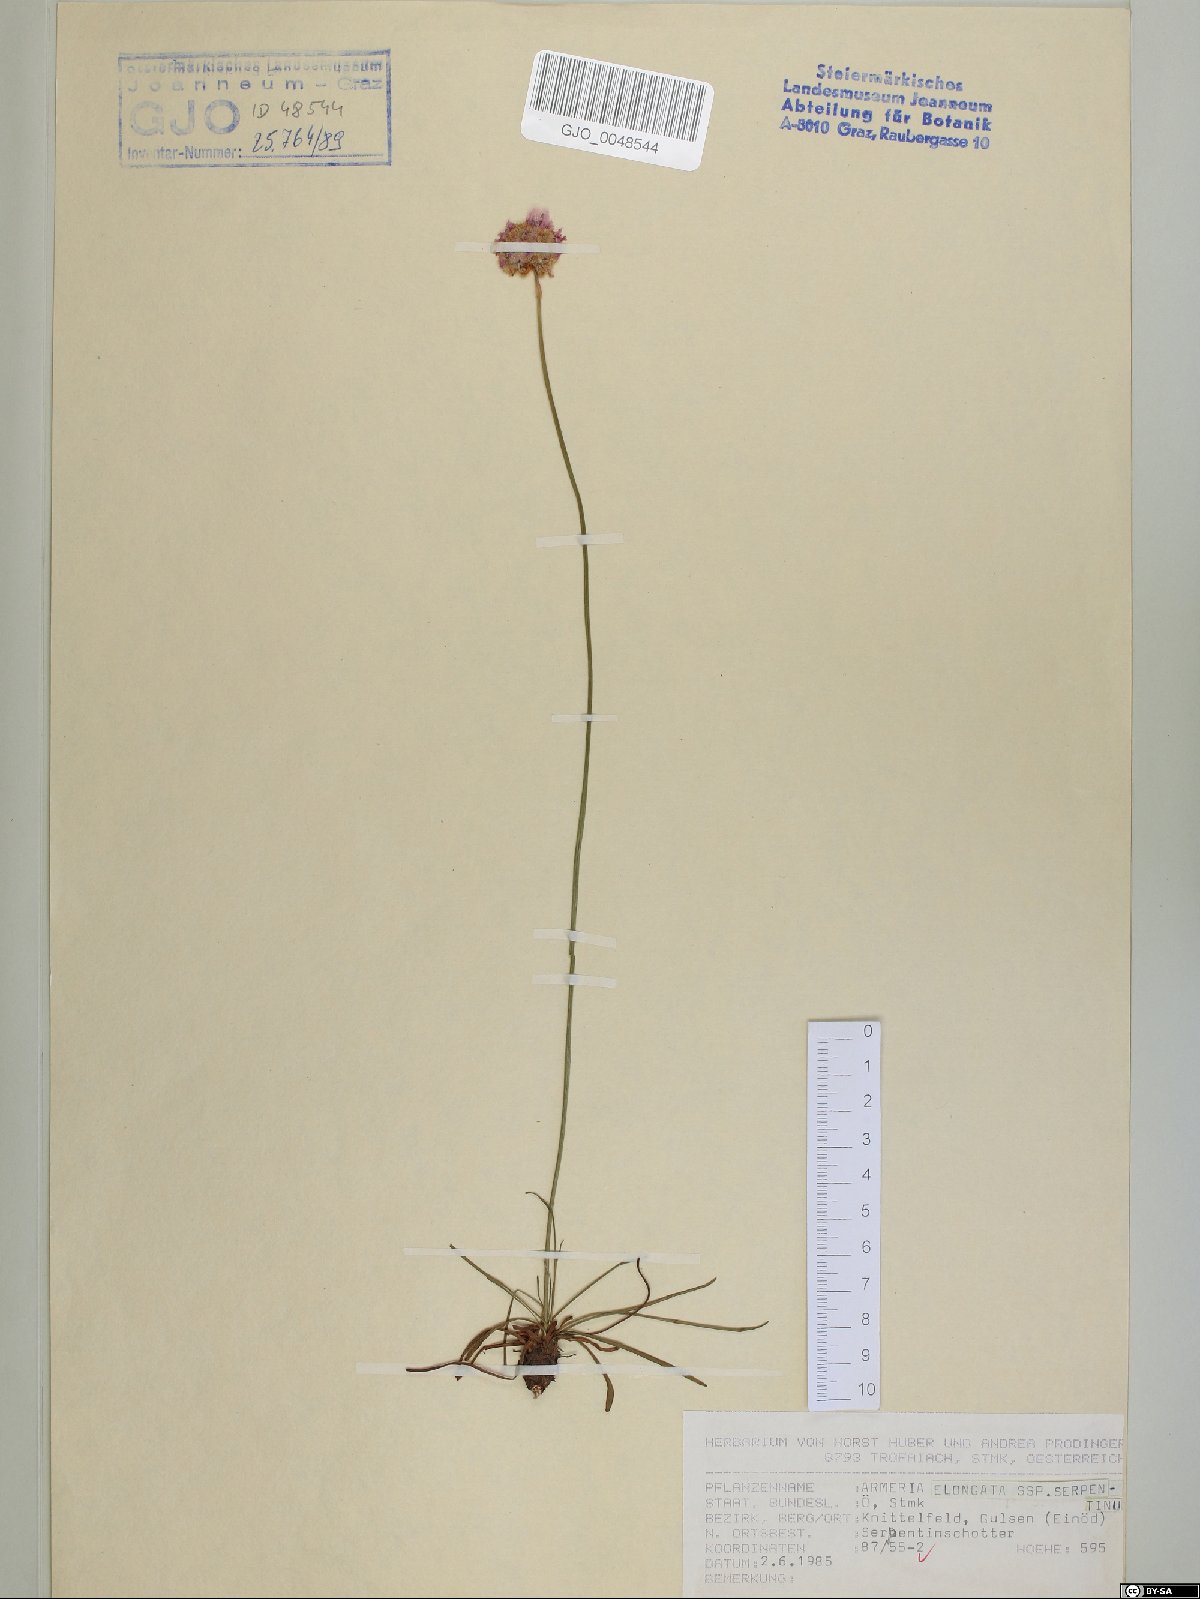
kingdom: Plantae
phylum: Tracheophyta
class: Magnoliopsida
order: Caryophyllales
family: Plumbaginaceae
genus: Armeria
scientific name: Armeria maritima
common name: Thrift
